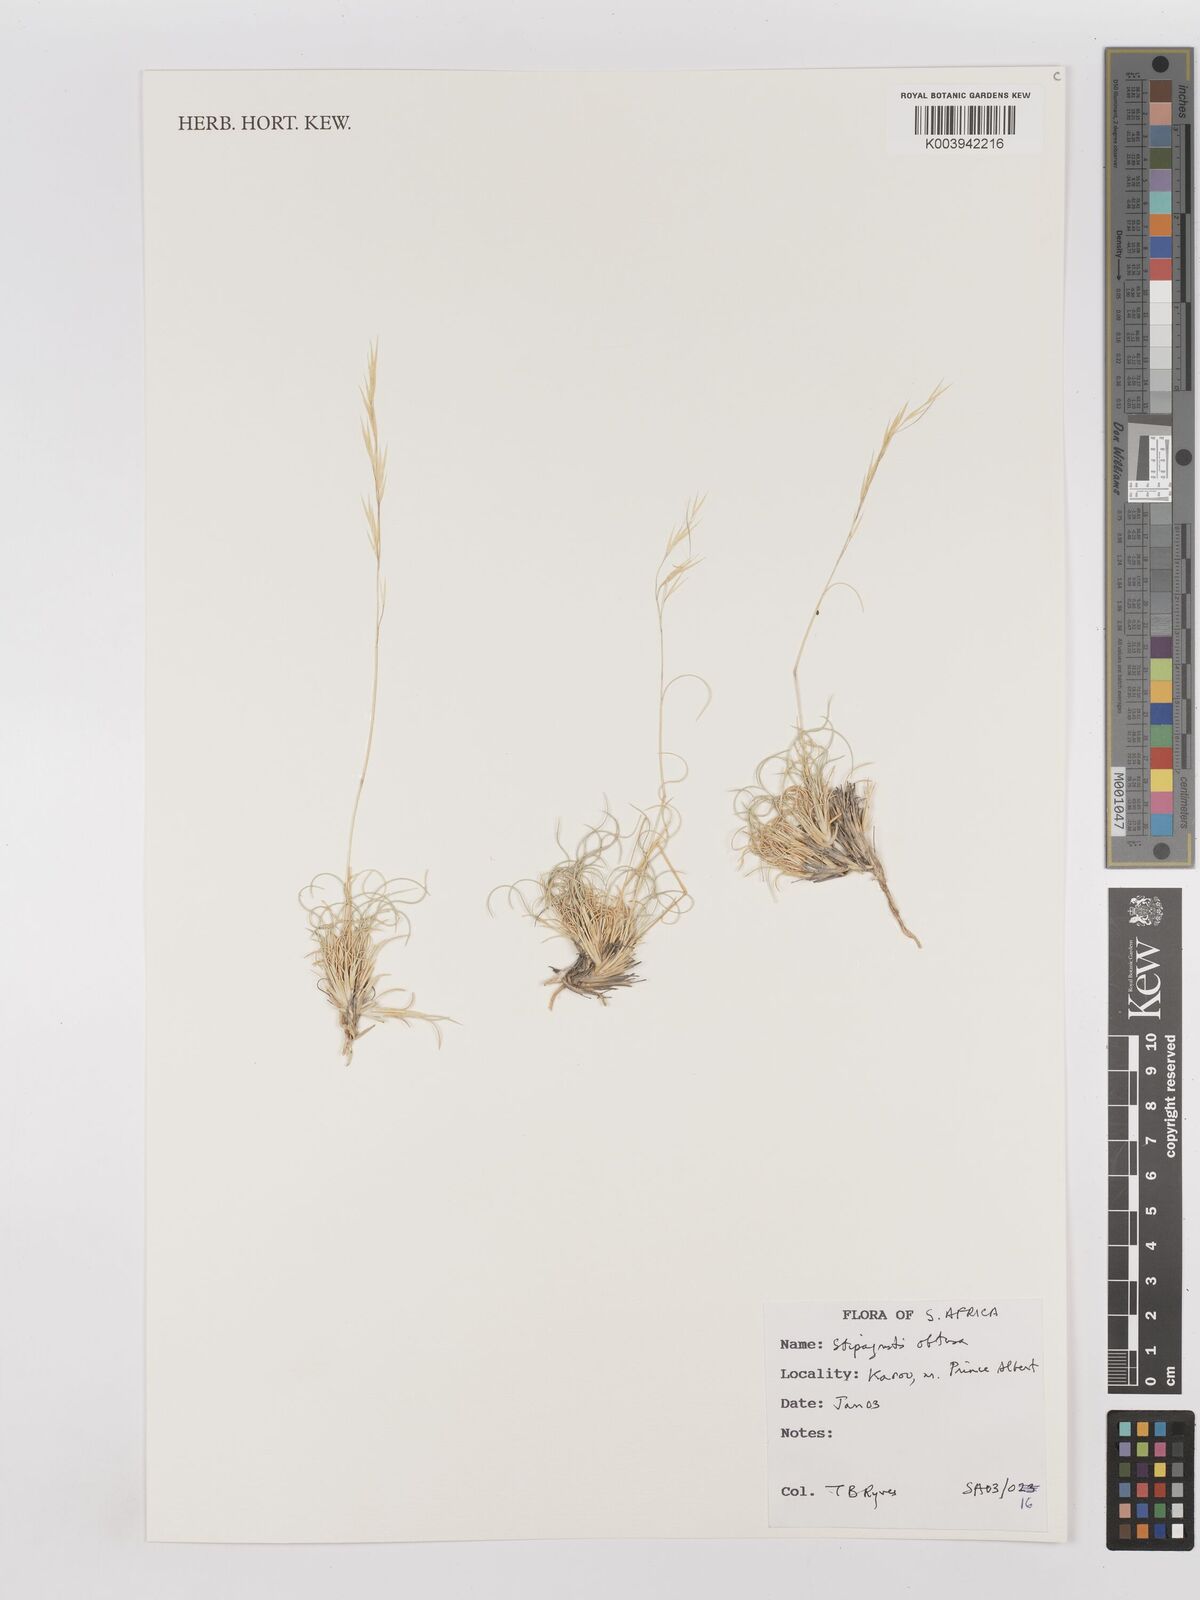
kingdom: Plantae
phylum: Tracheophyta
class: Liliopsida
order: Poales
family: Poaceae
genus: Stipagrostis
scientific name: Stipagrostis obtusa
